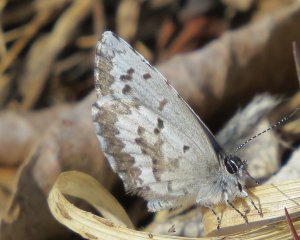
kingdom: Animalia
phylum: Arthropoda
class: Insecta
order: Lepidoptera
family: Lycaenidae
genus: Celastrina
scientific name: Celastrina
